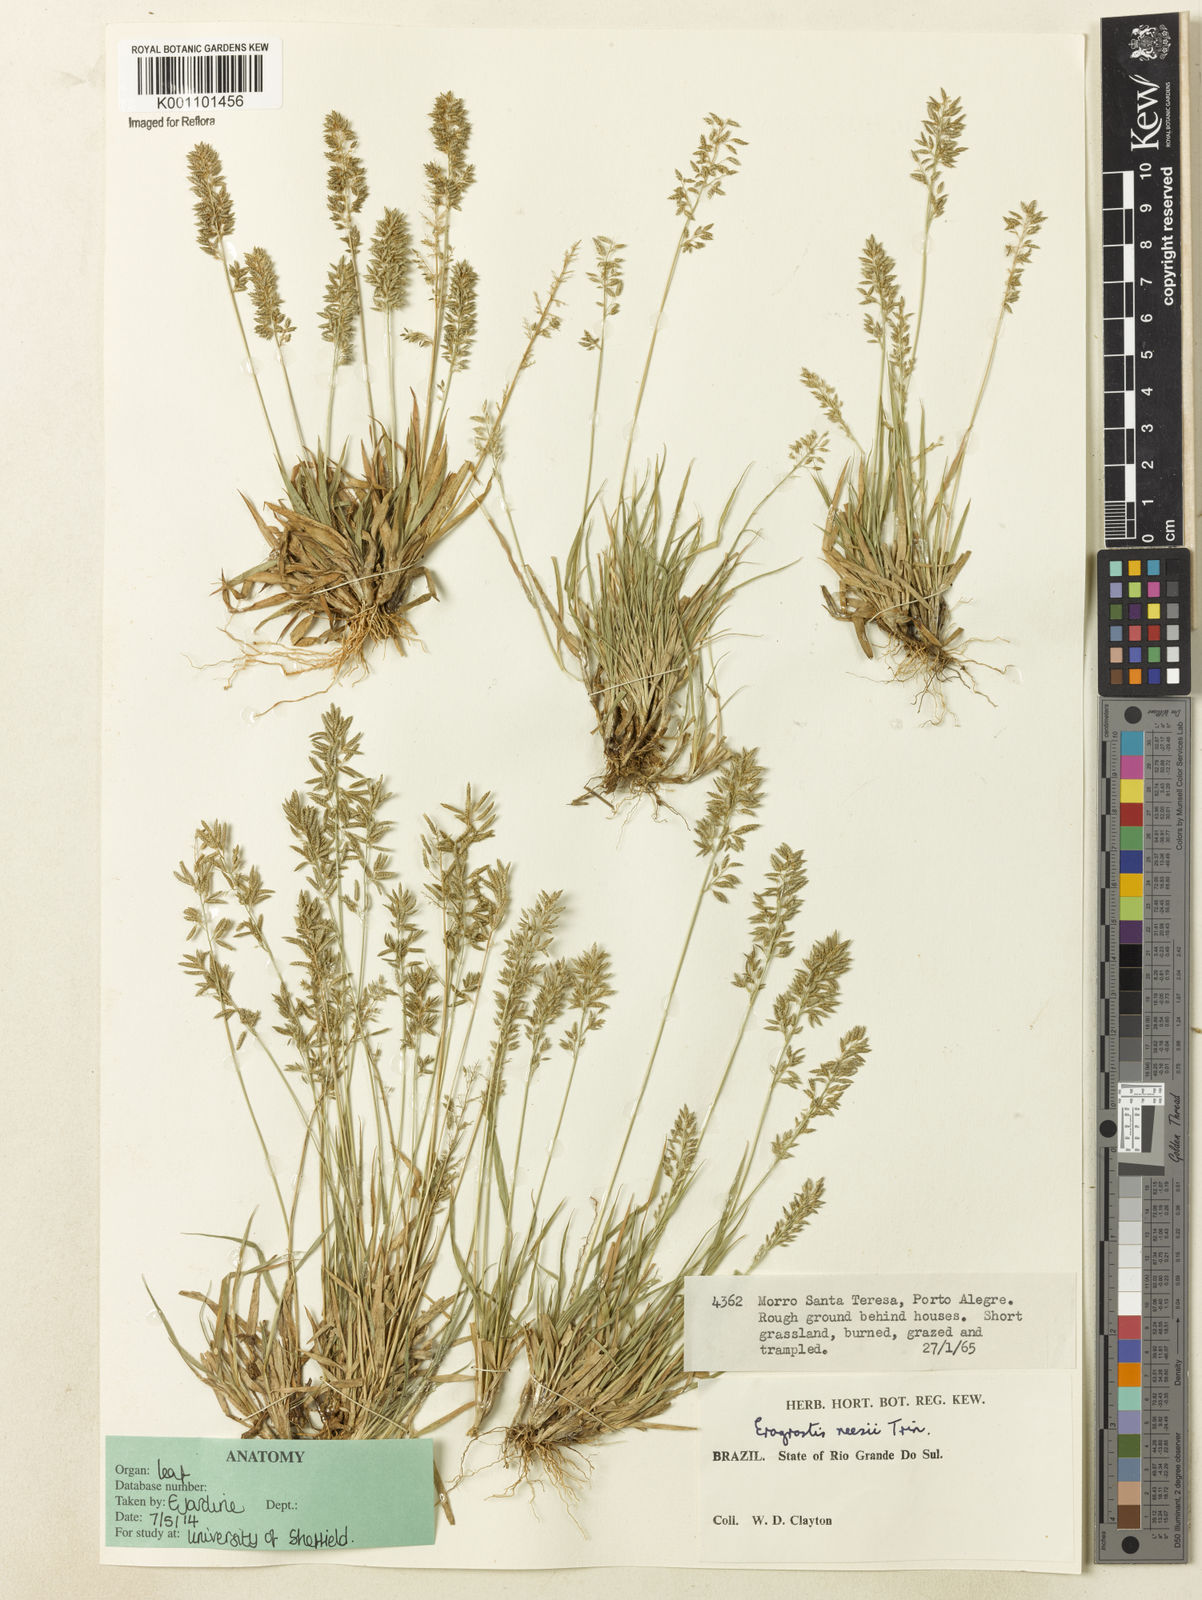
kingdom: Plantae
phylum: Tracheophyta
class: Liliopsida
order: Poales
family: Poaceae
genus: Eragrostis
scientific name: Eragrostis neesii
